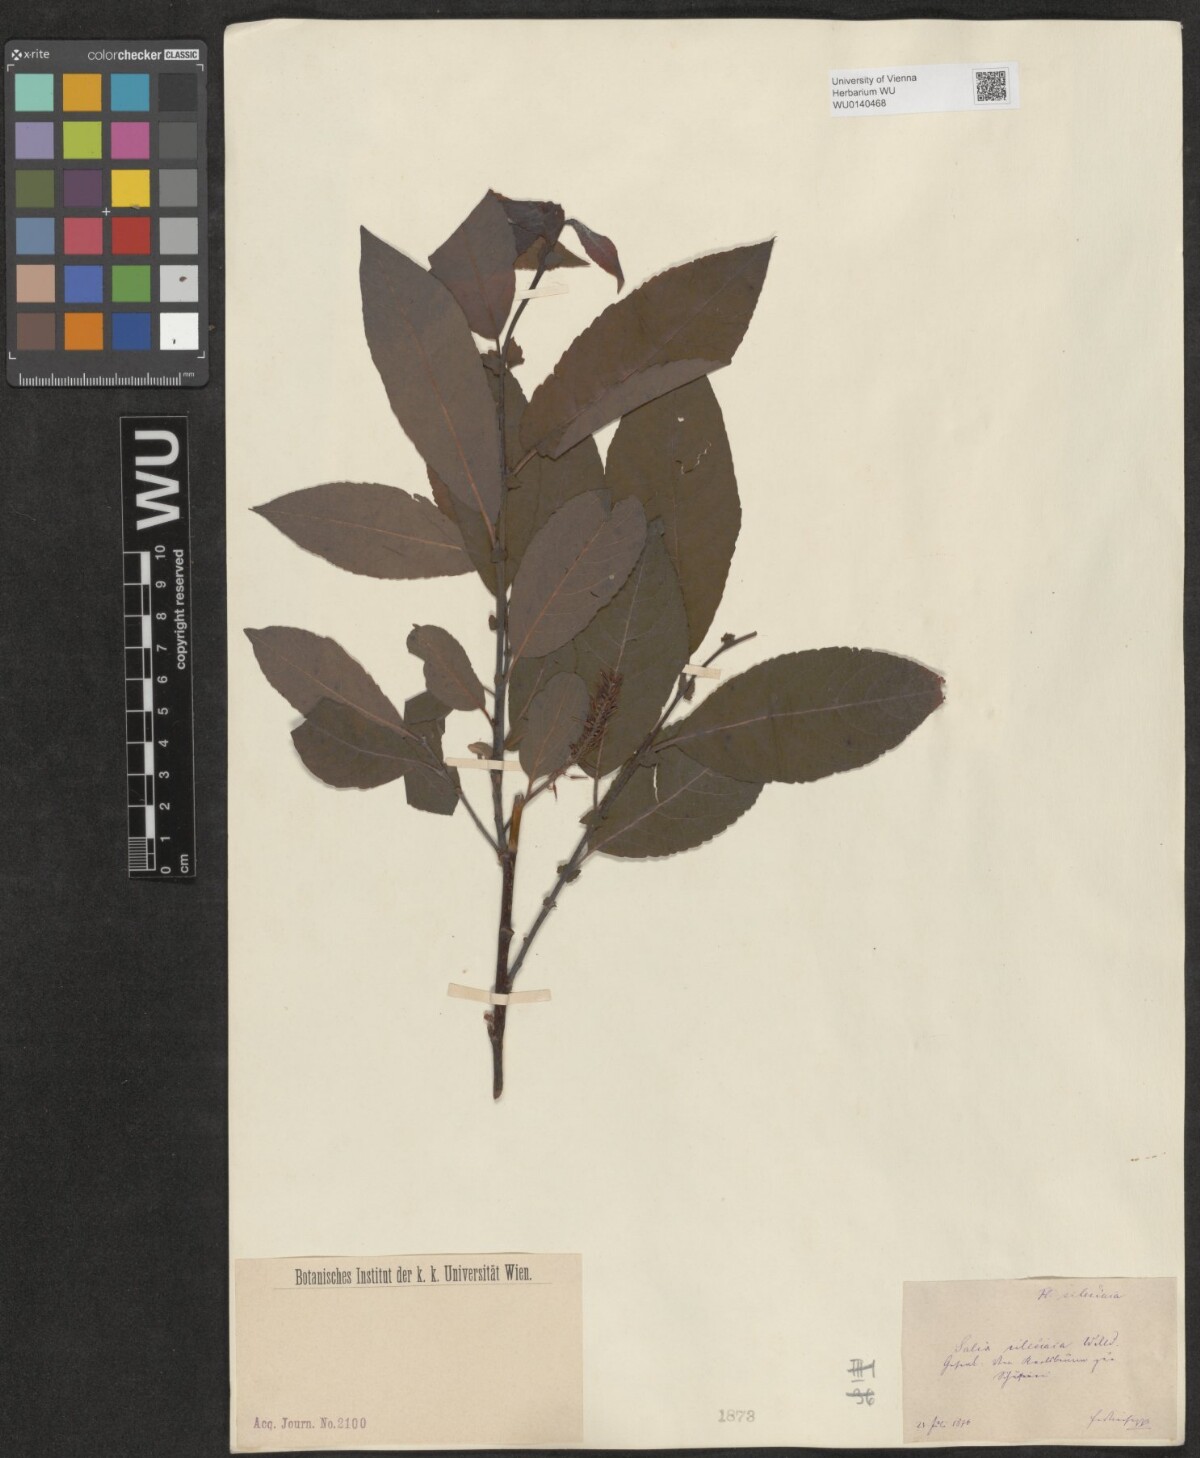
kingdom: Plantae
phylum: Tracheophyta
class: Magnoliopsida
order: Malpighiales
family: Salicaceae
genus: Salix
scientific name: Salix silesiaca
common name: Silesian willow
